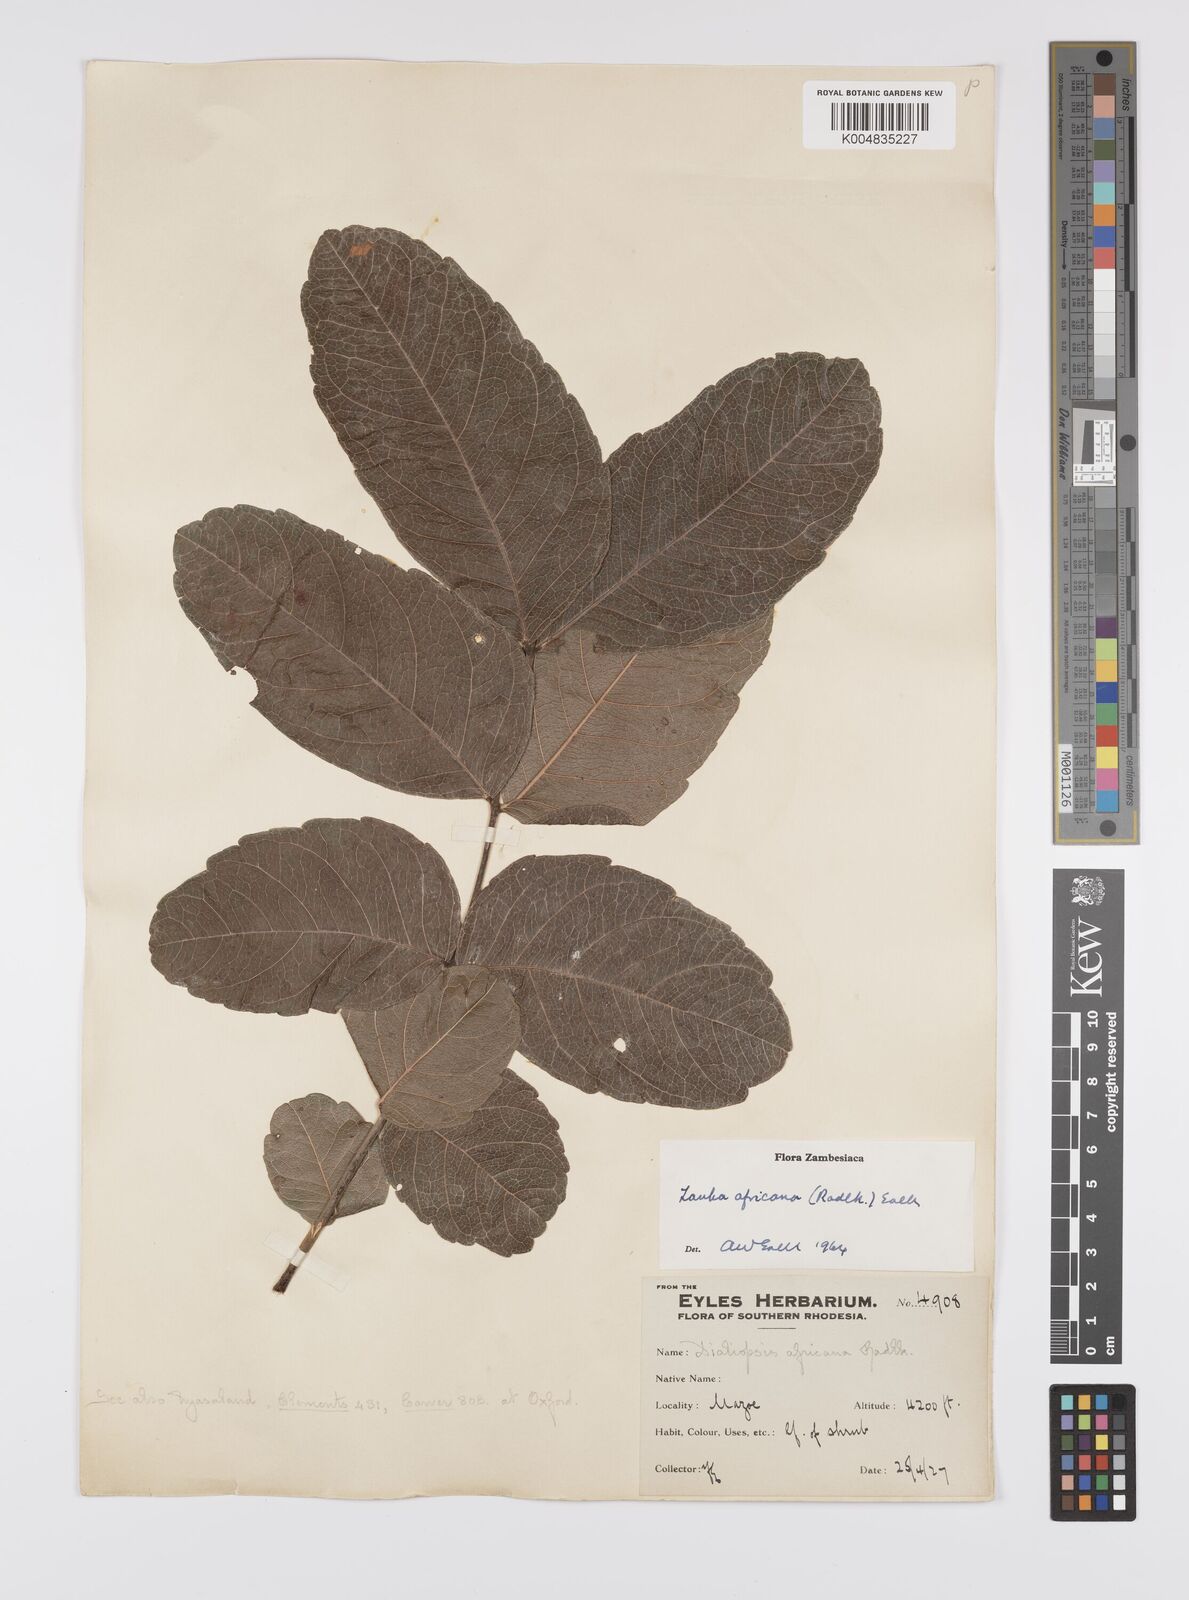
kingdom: Plantae
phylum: Tracheophyta
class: Magnoliopsida
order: Sapindales
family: Sapindaceae
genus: Zanha
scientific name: Zanha africana
